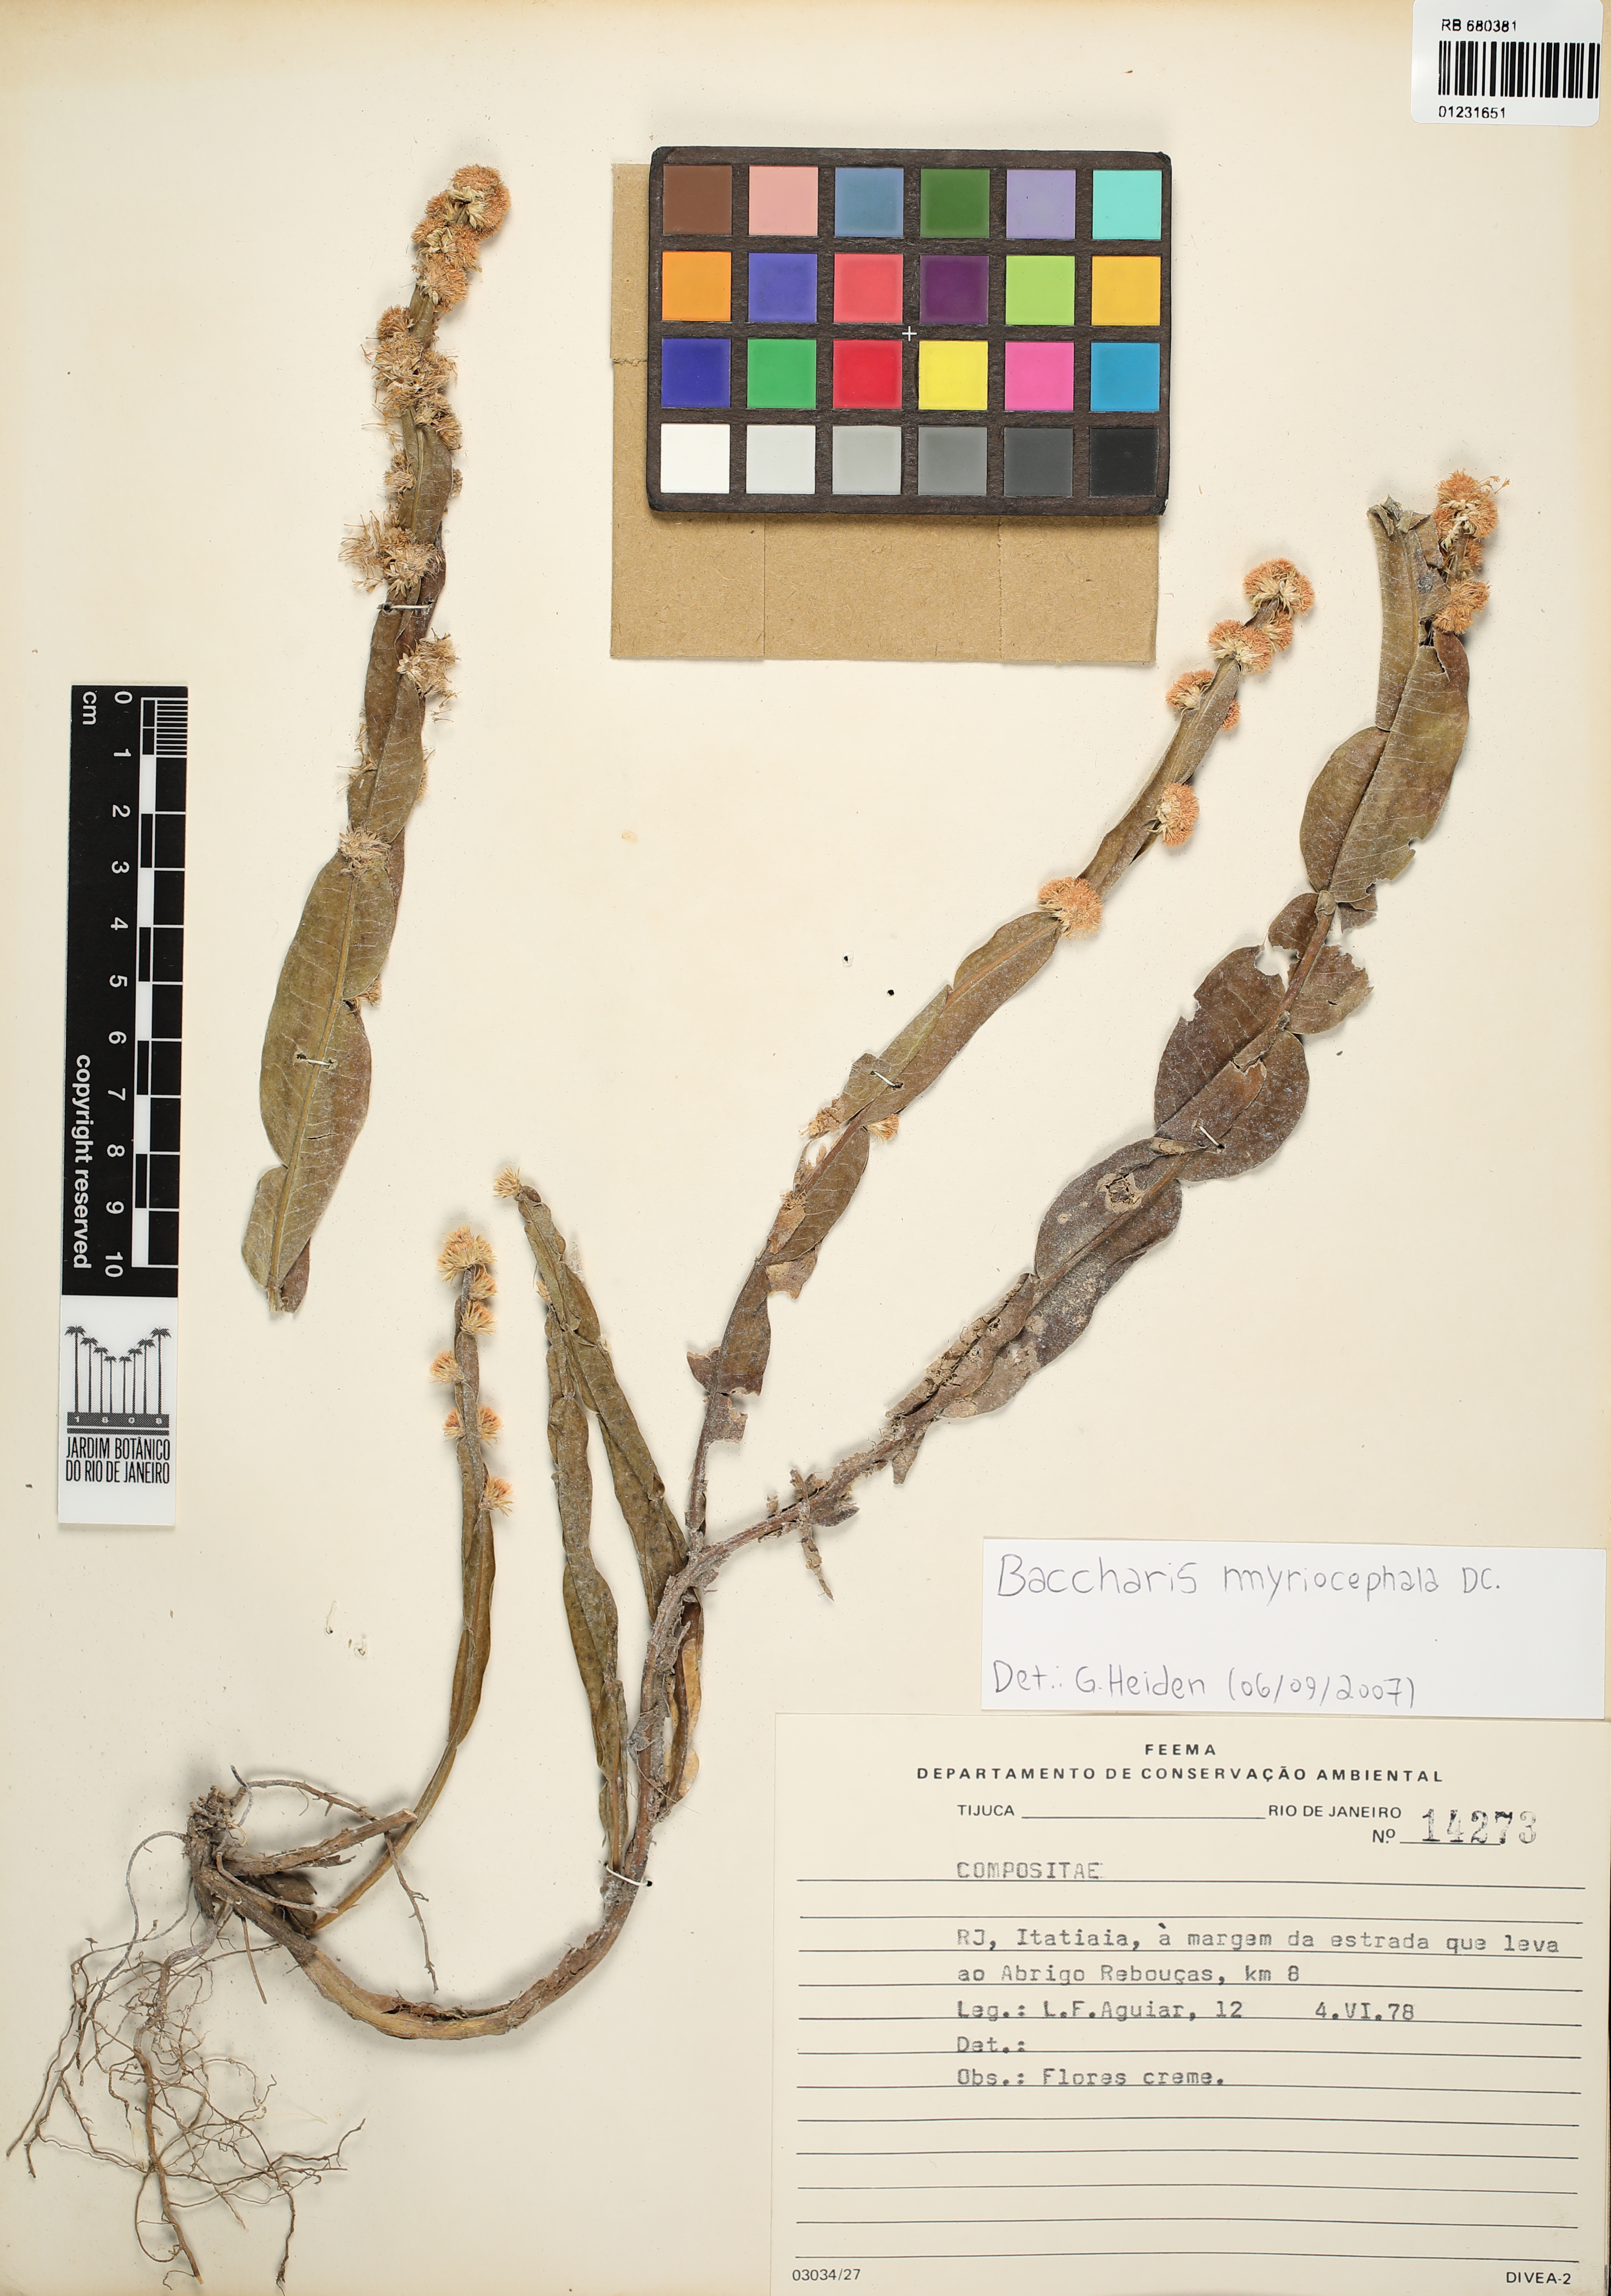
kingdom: Plantae
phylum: Tracheophyta
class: Magnoliopsida
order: Asterales
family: Asteraceae
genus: Baccharis
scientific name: Baccharis myriocephala
